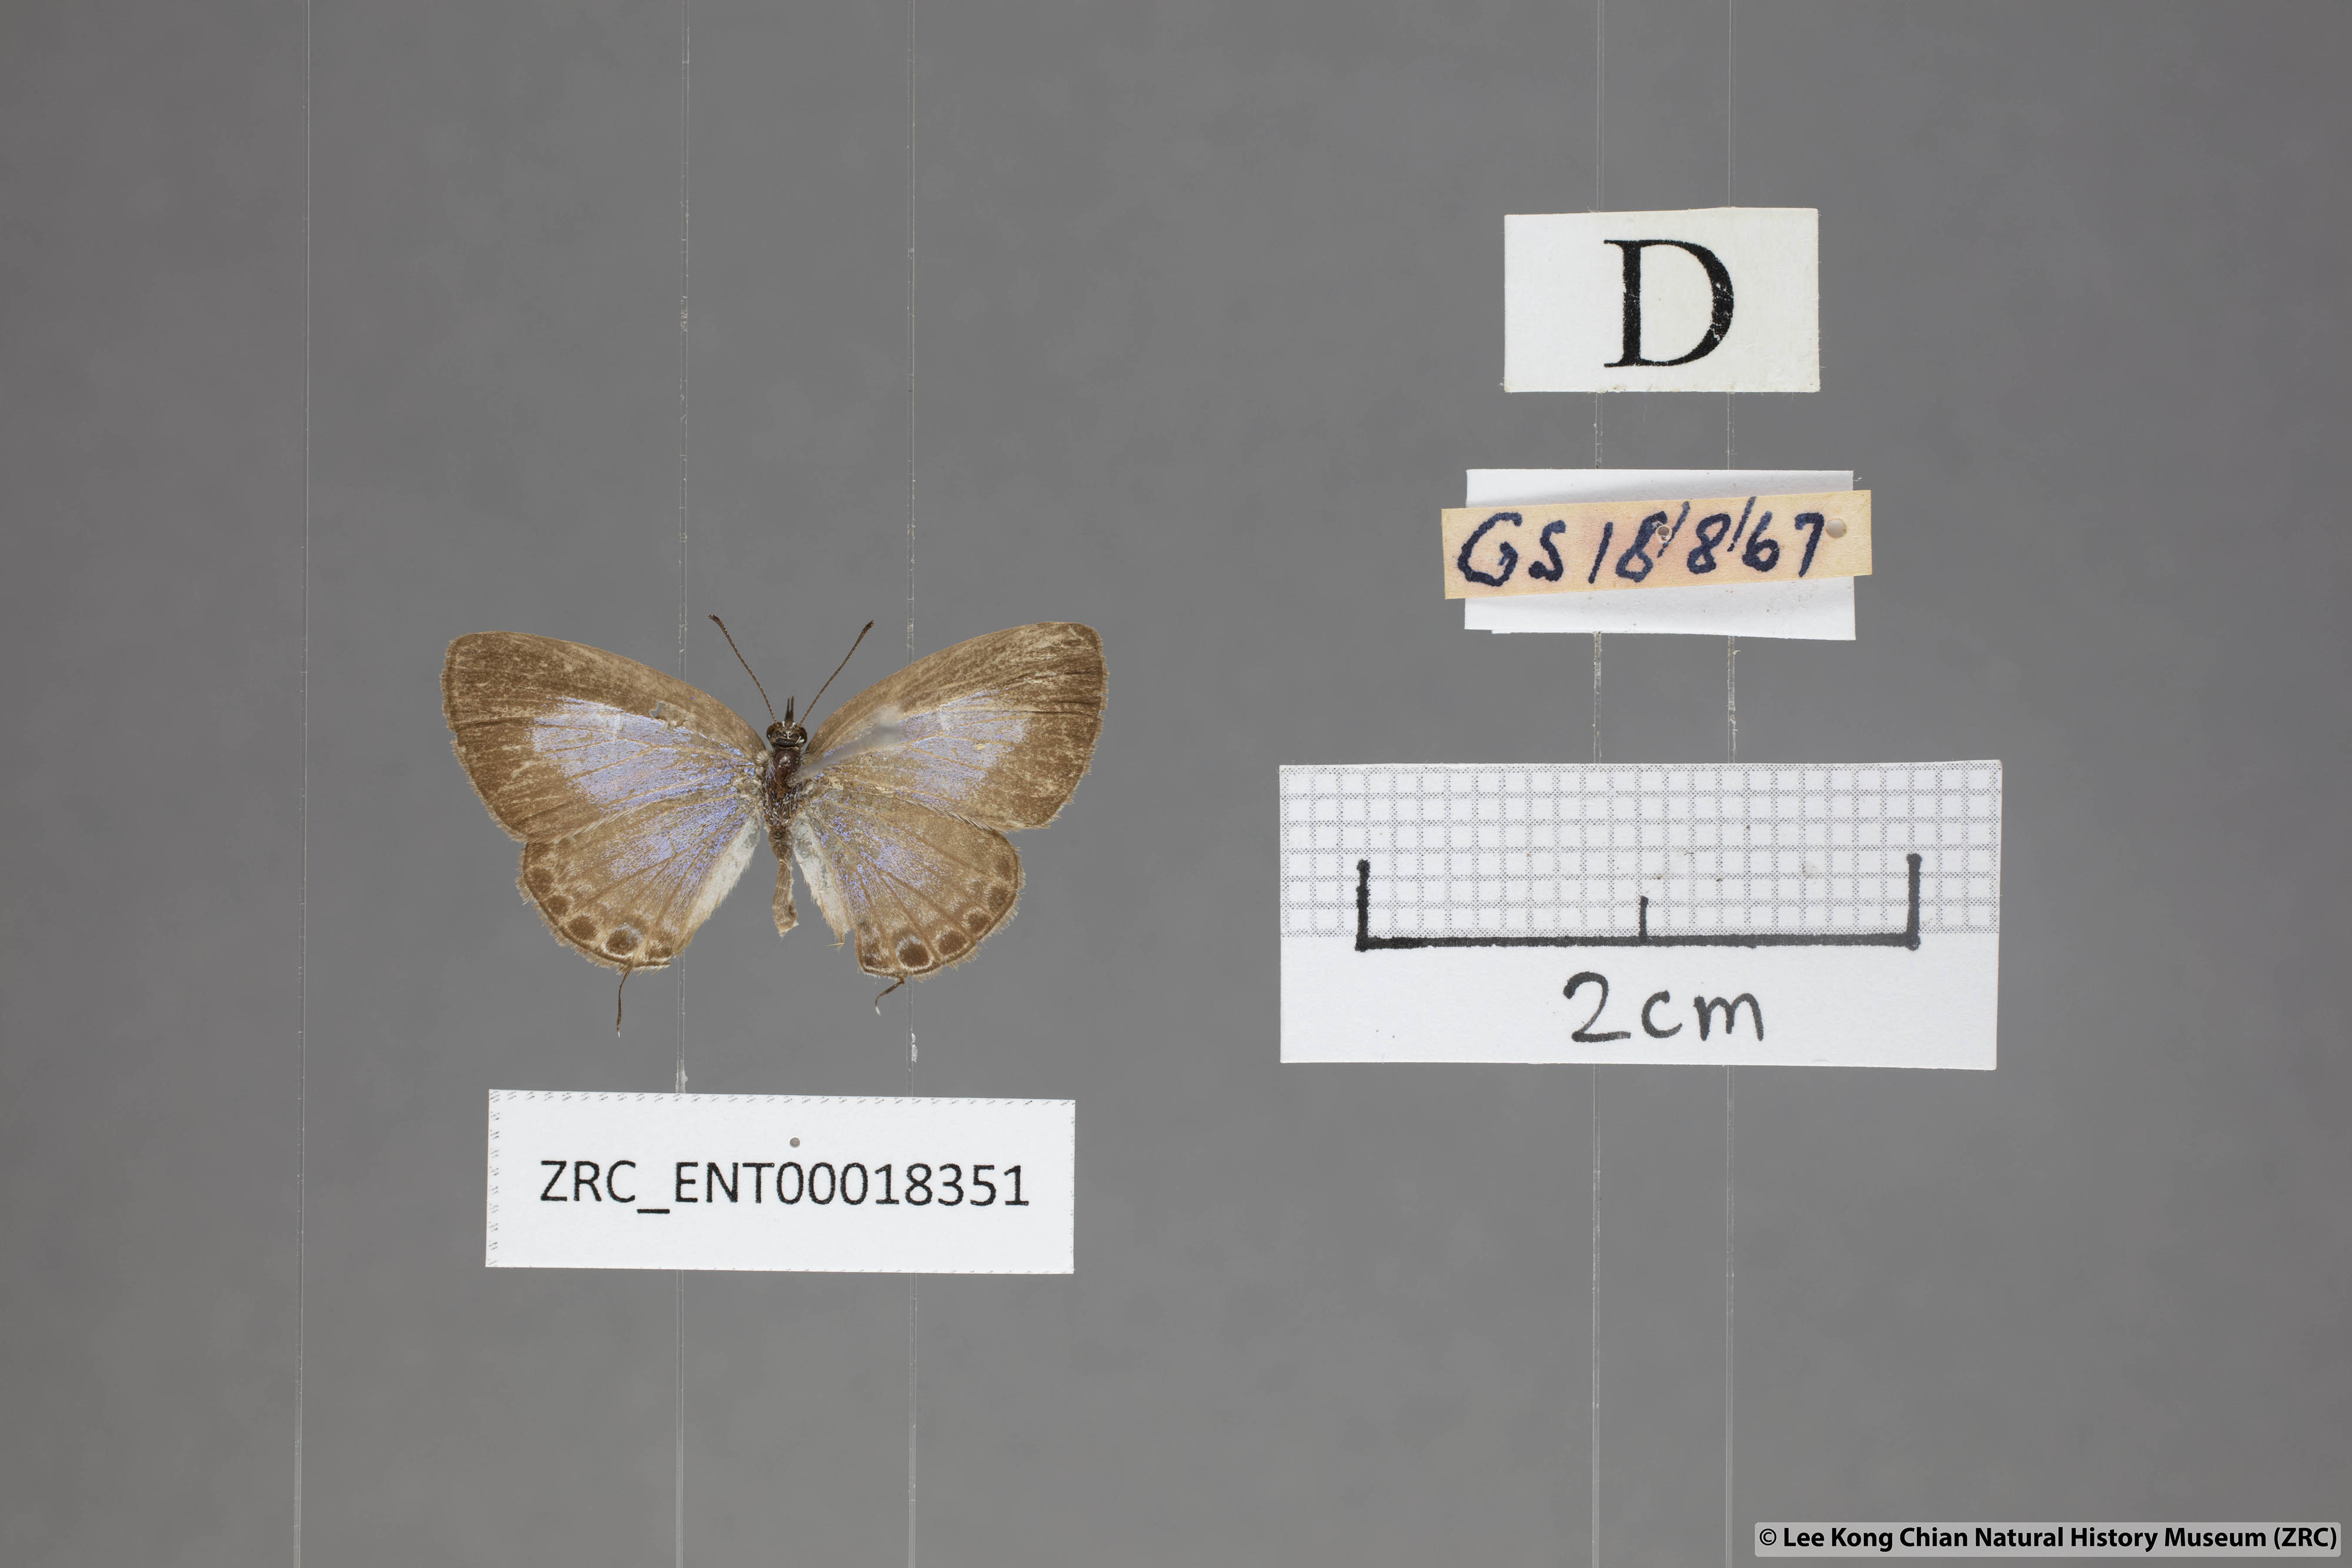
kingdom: Animalia
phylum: Arthropoda
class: Insecta
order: Lepidoptera
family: Lycaenidae
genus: Nacaduba
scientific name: Nacaduba hermus
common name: Pale four-line blue
